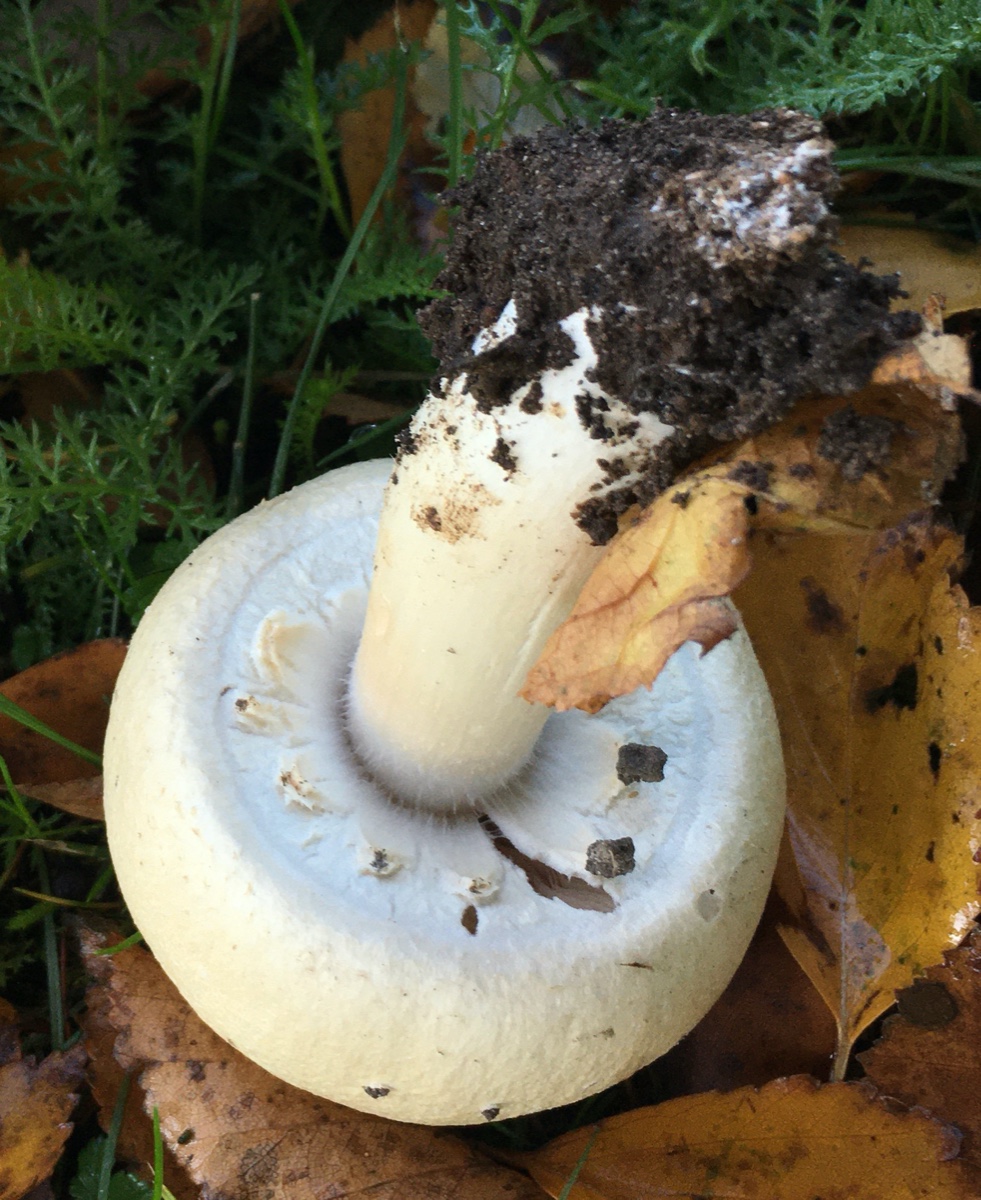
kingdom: Fungi
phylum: Basidiomycota
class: Agaricomycetes
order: Agaricales
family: Agaricaceae
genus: Agaricus
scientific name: Agaricus arvensis
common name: ager-champignon
